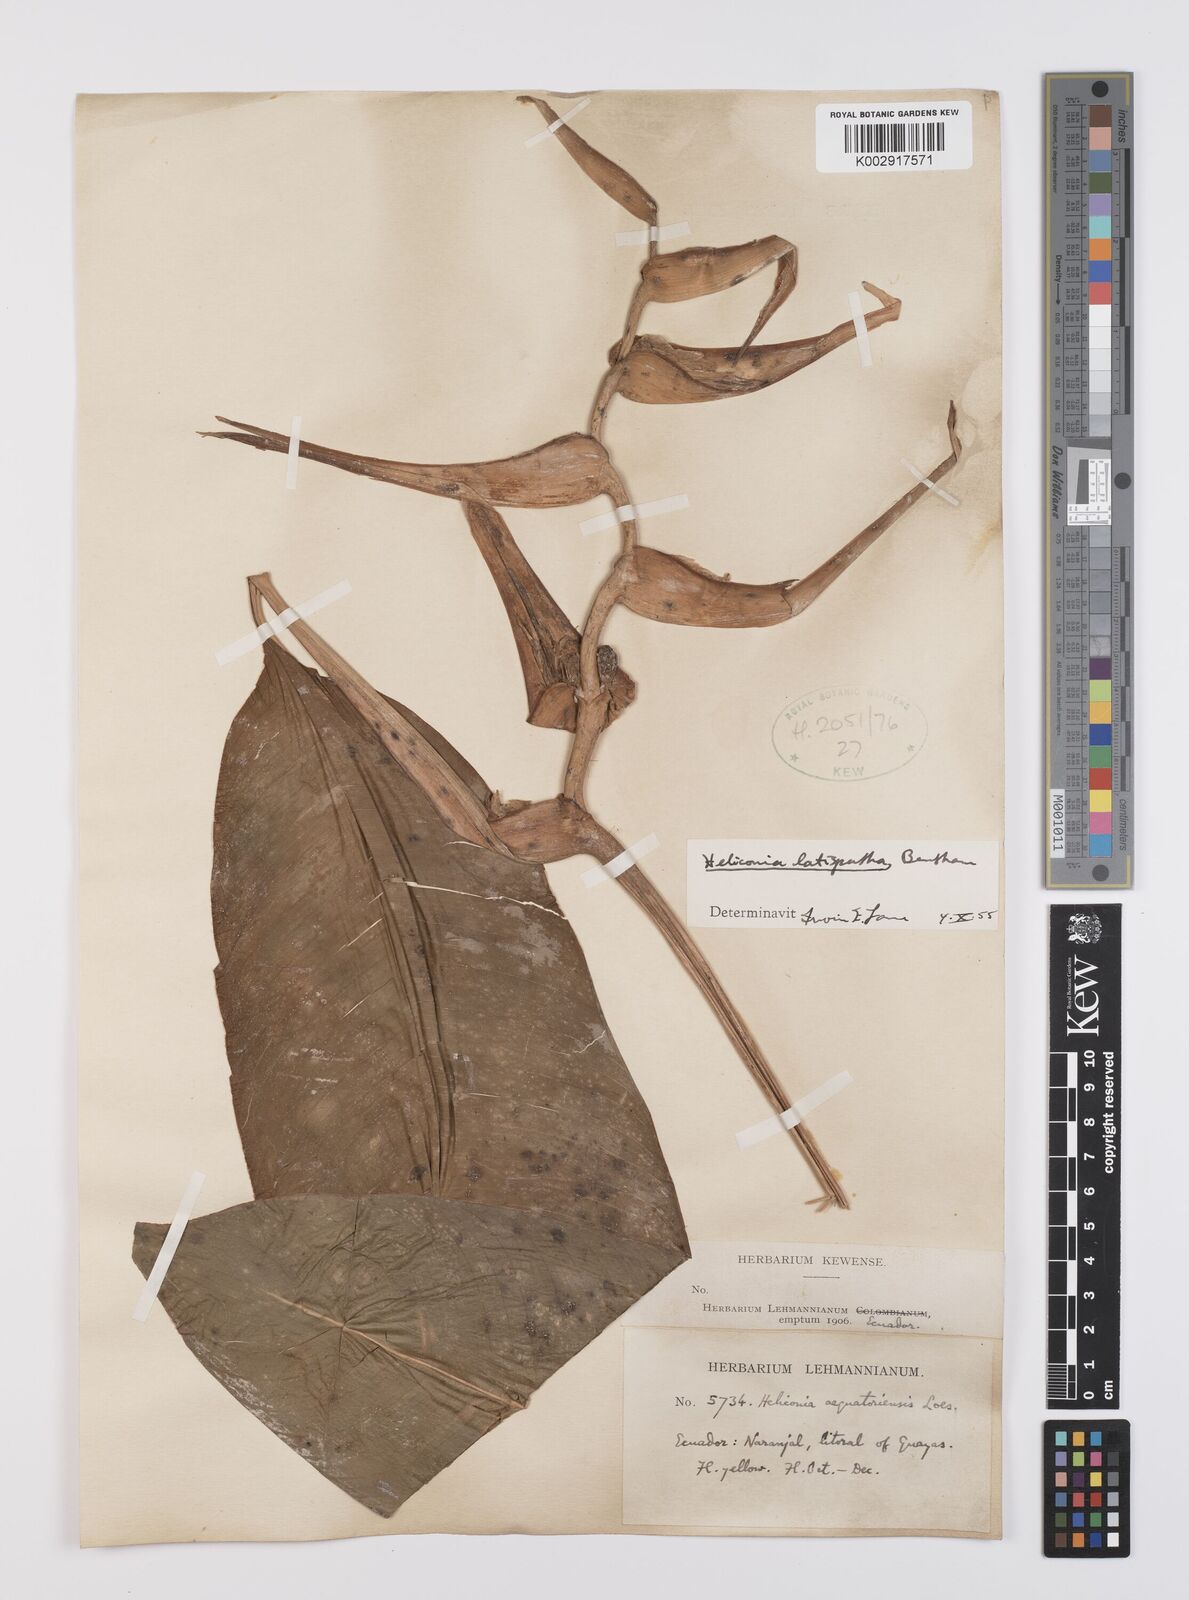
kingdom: Plantae
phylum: Tracheophyta
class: Liliopsida
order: Zingiberales
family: Heliconiaceae
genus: Heliconia
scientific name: Heliconia latispatha
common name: Expanded lobsterclaw
